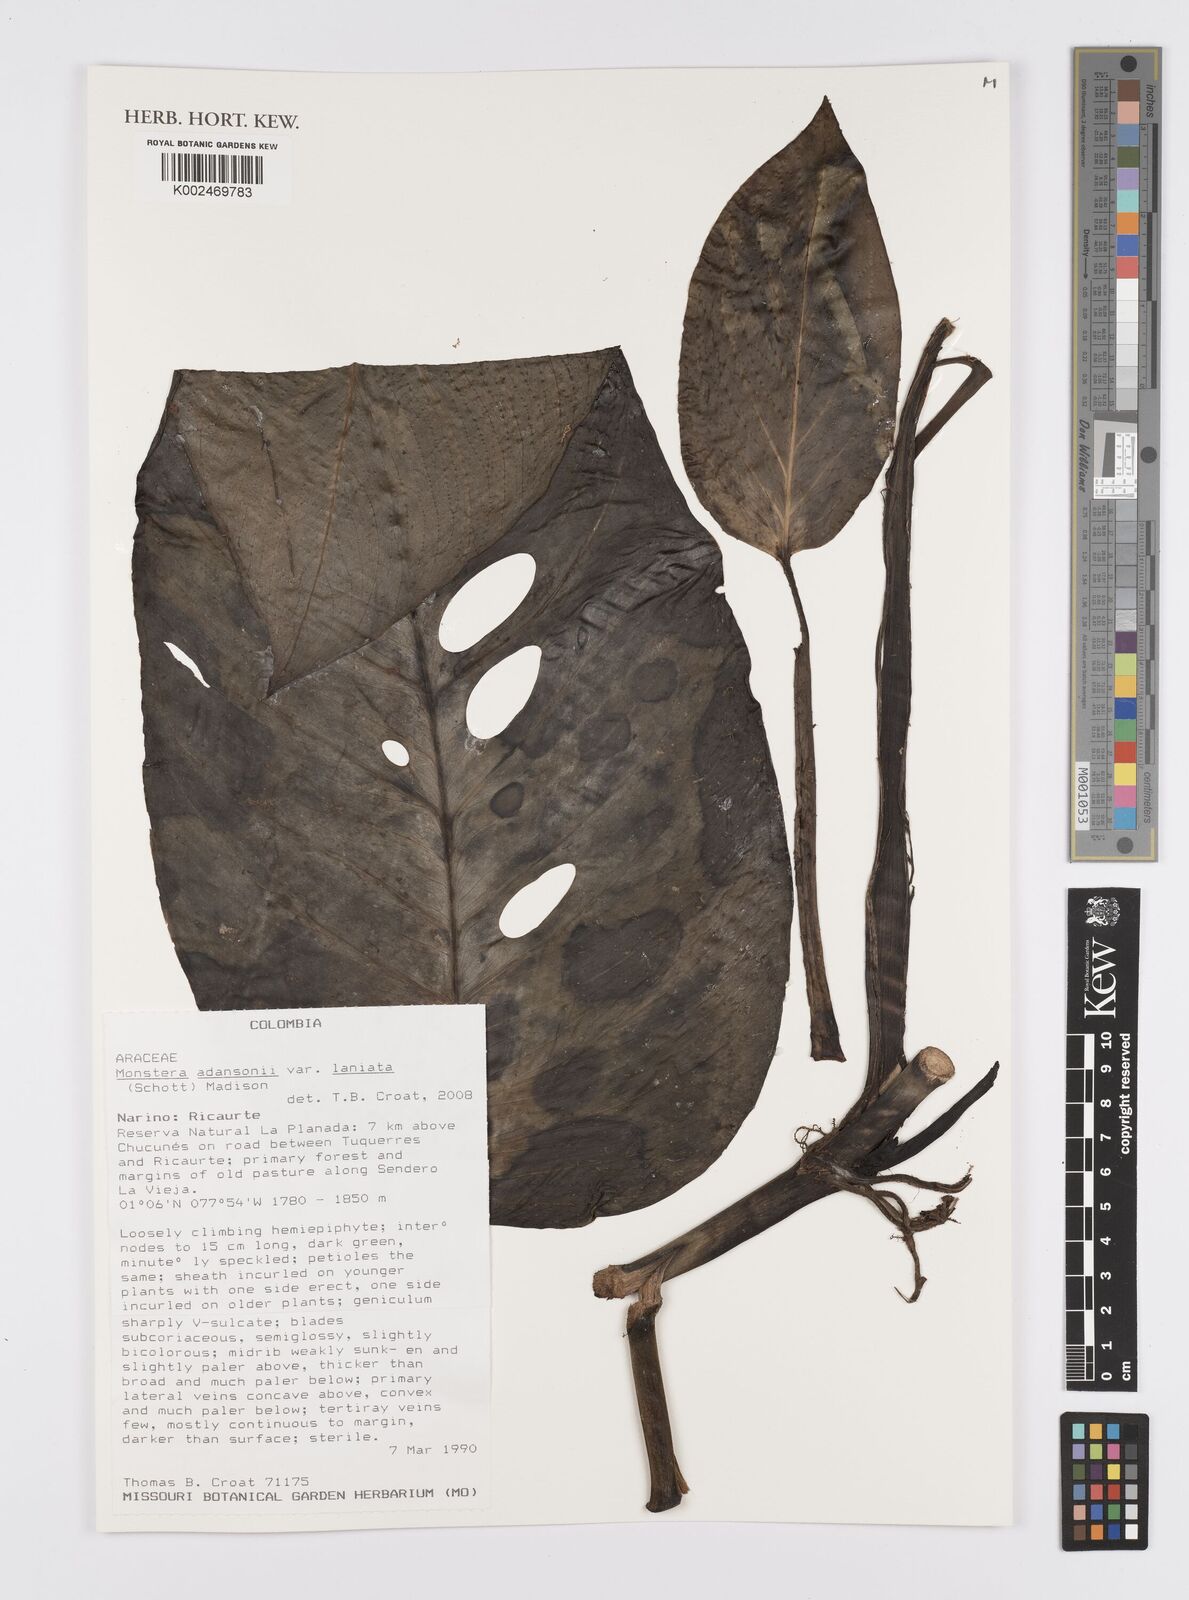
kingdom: Plantae
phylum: Tracheophyta
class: Liliopsida
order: Alismatales
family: Araceae
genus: Monstera
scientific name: Monstera adansonii
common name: Tarovine
